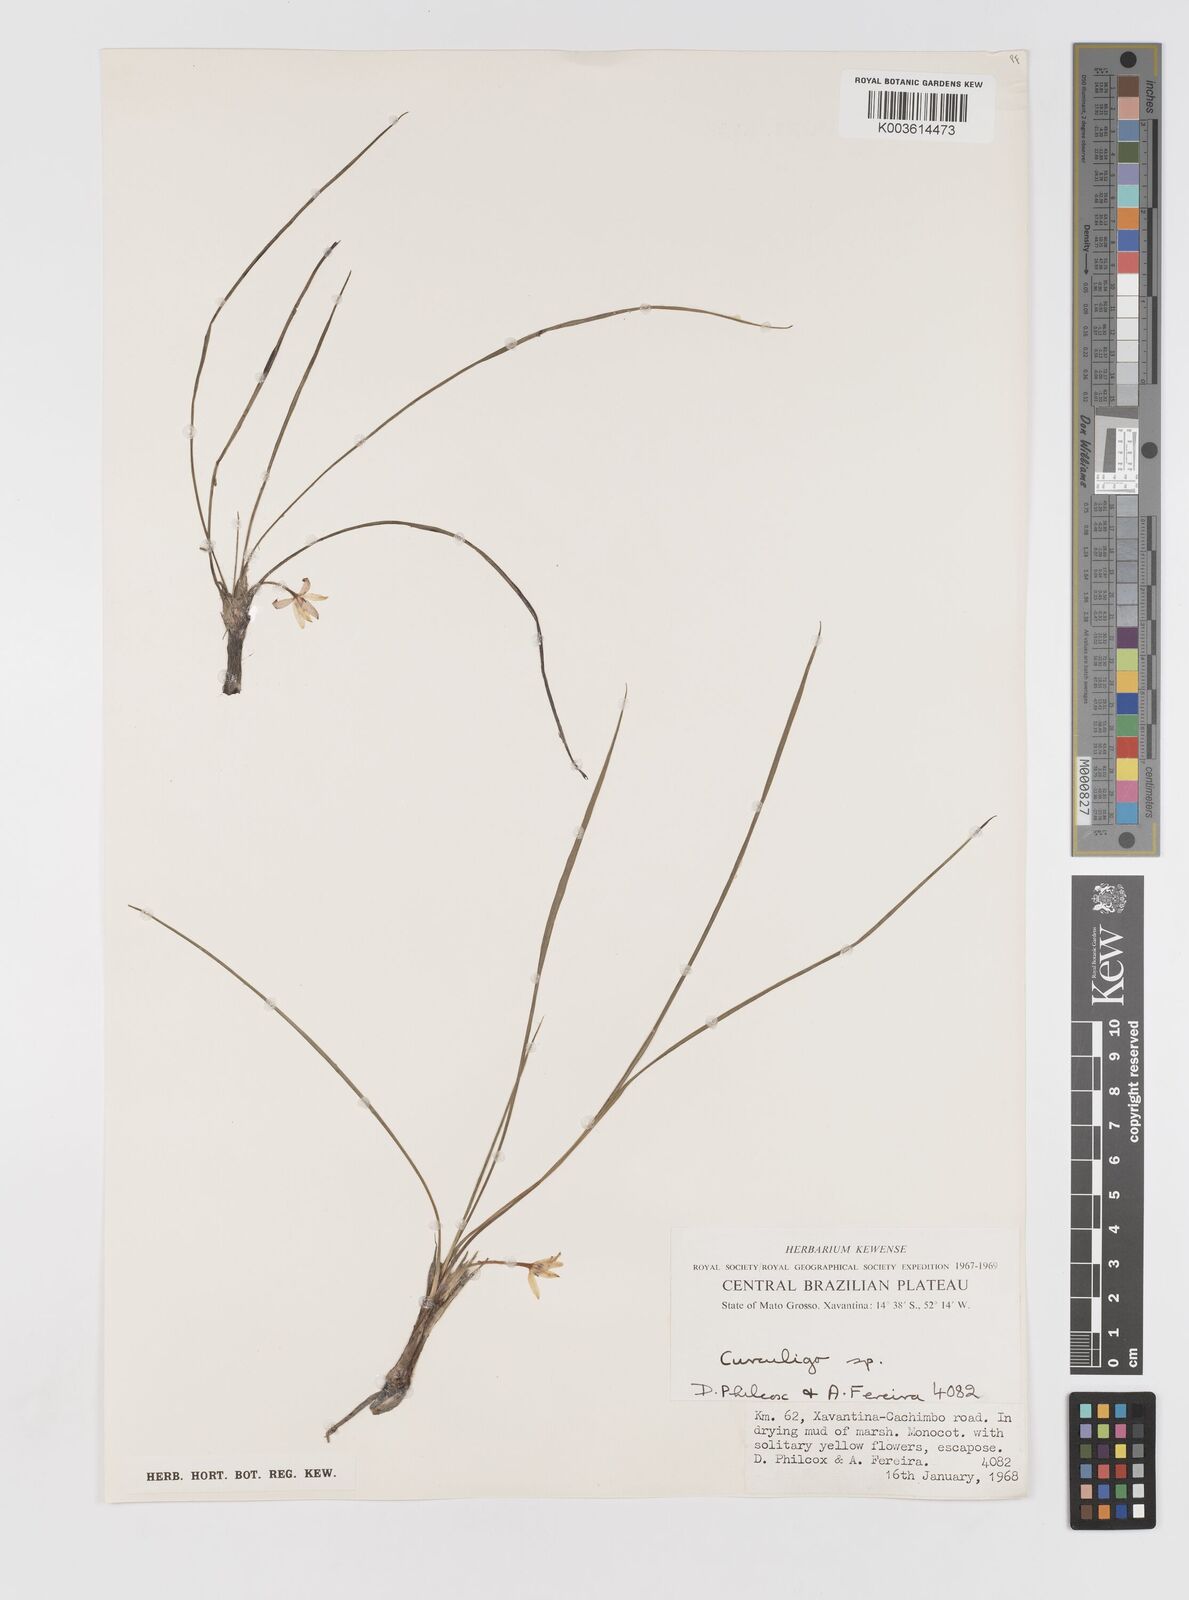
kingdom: Plantae
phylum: Tracheophyta
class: Liliopsida
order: Asparagales
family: Hypoxidaceae
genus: Curculigo
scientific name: Curculigo
